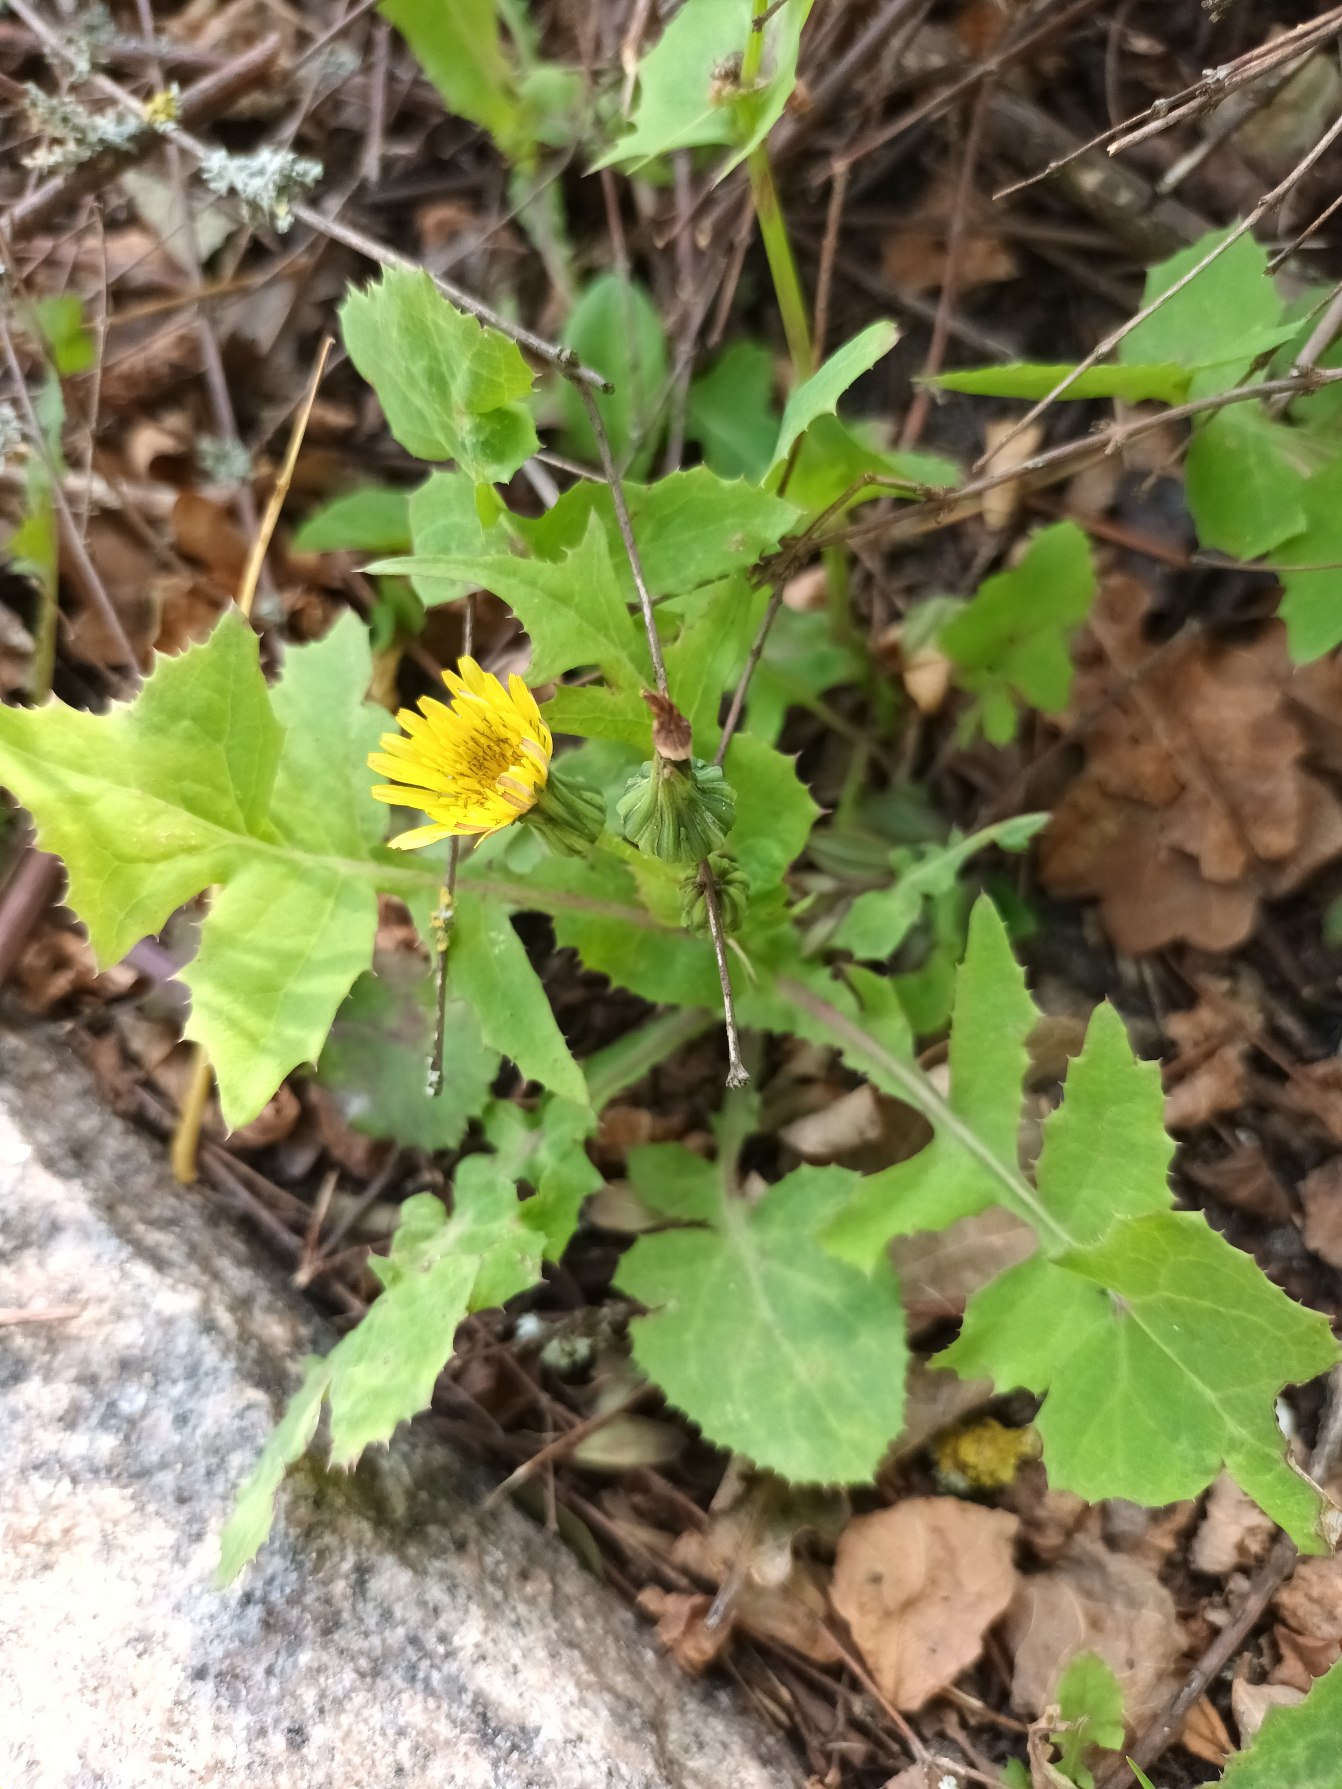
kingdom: Plantae
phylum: Tracheophyta
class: Magnoliopsida
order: Asterales
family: Asteraceae
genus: Sonchus
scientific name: Sonchus oleraceus
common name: Almindelig svinemælk
